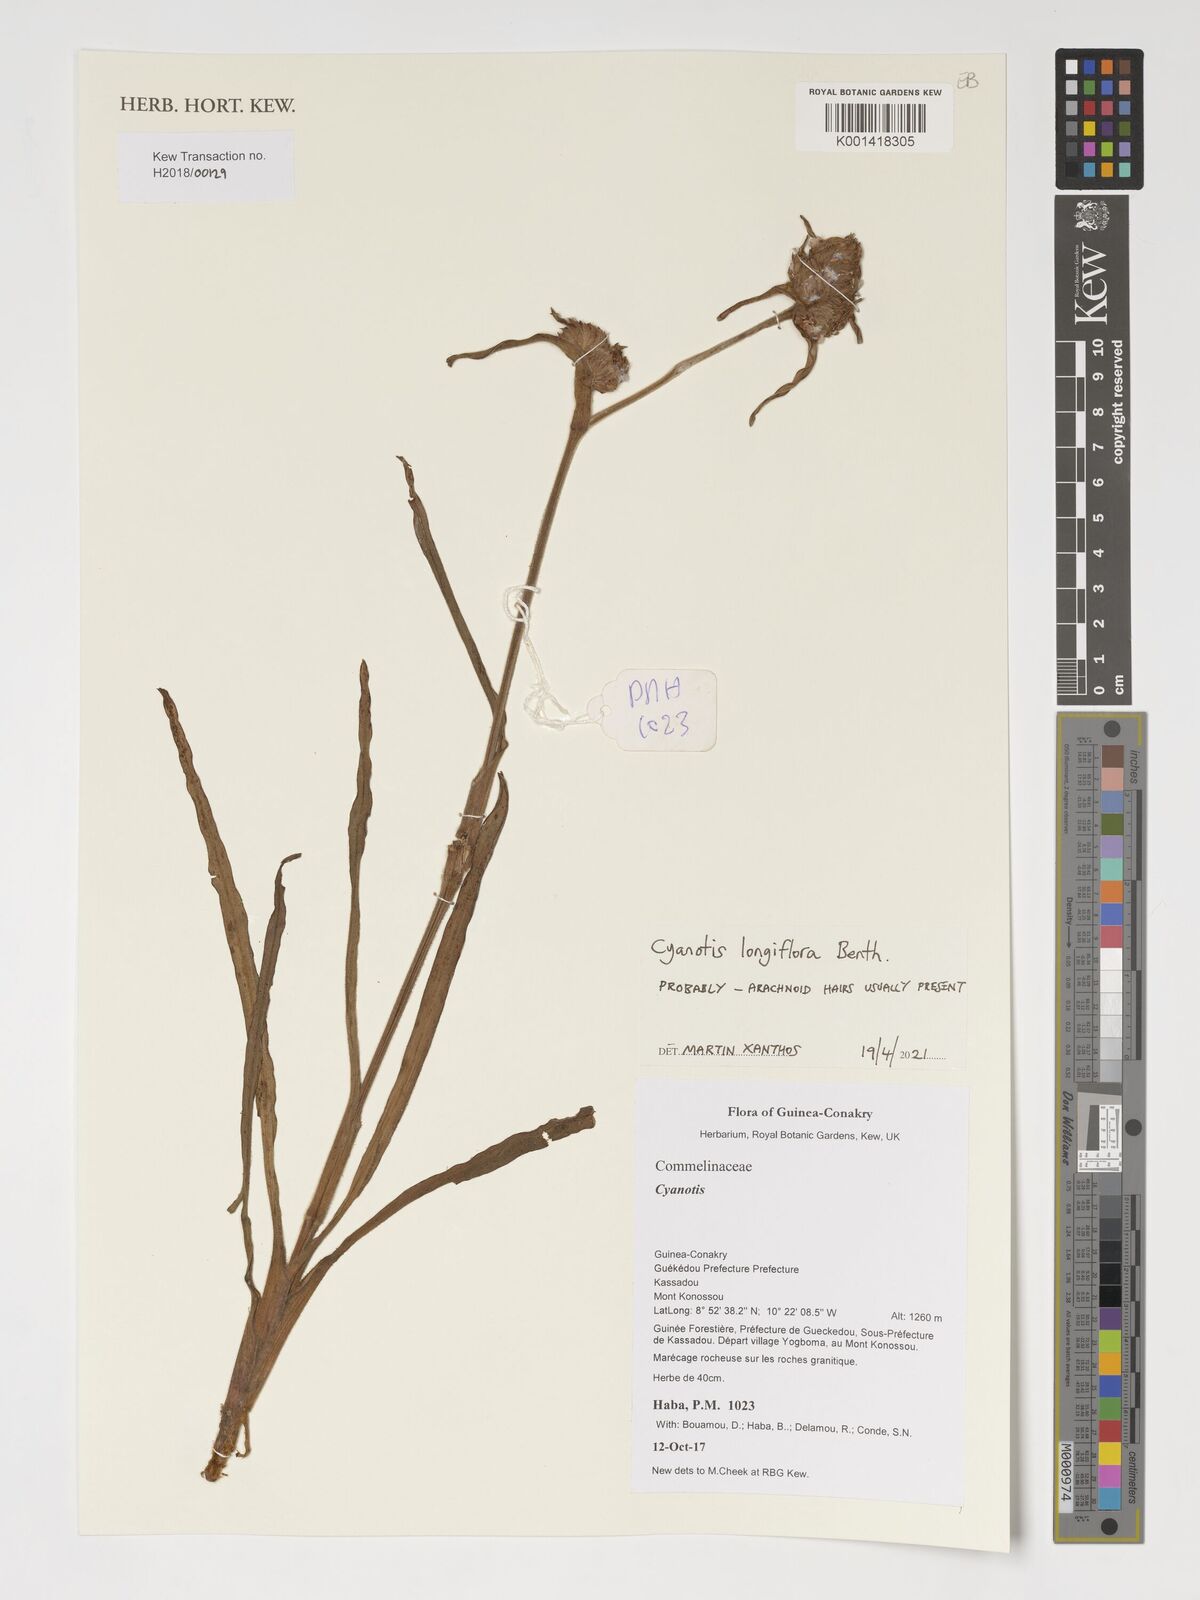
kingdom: Plantae
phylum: Tracheophyta
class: Liliopsida
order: Commelinales
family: Commelinaceae
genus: Cyanotis
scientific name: Cyanotis
